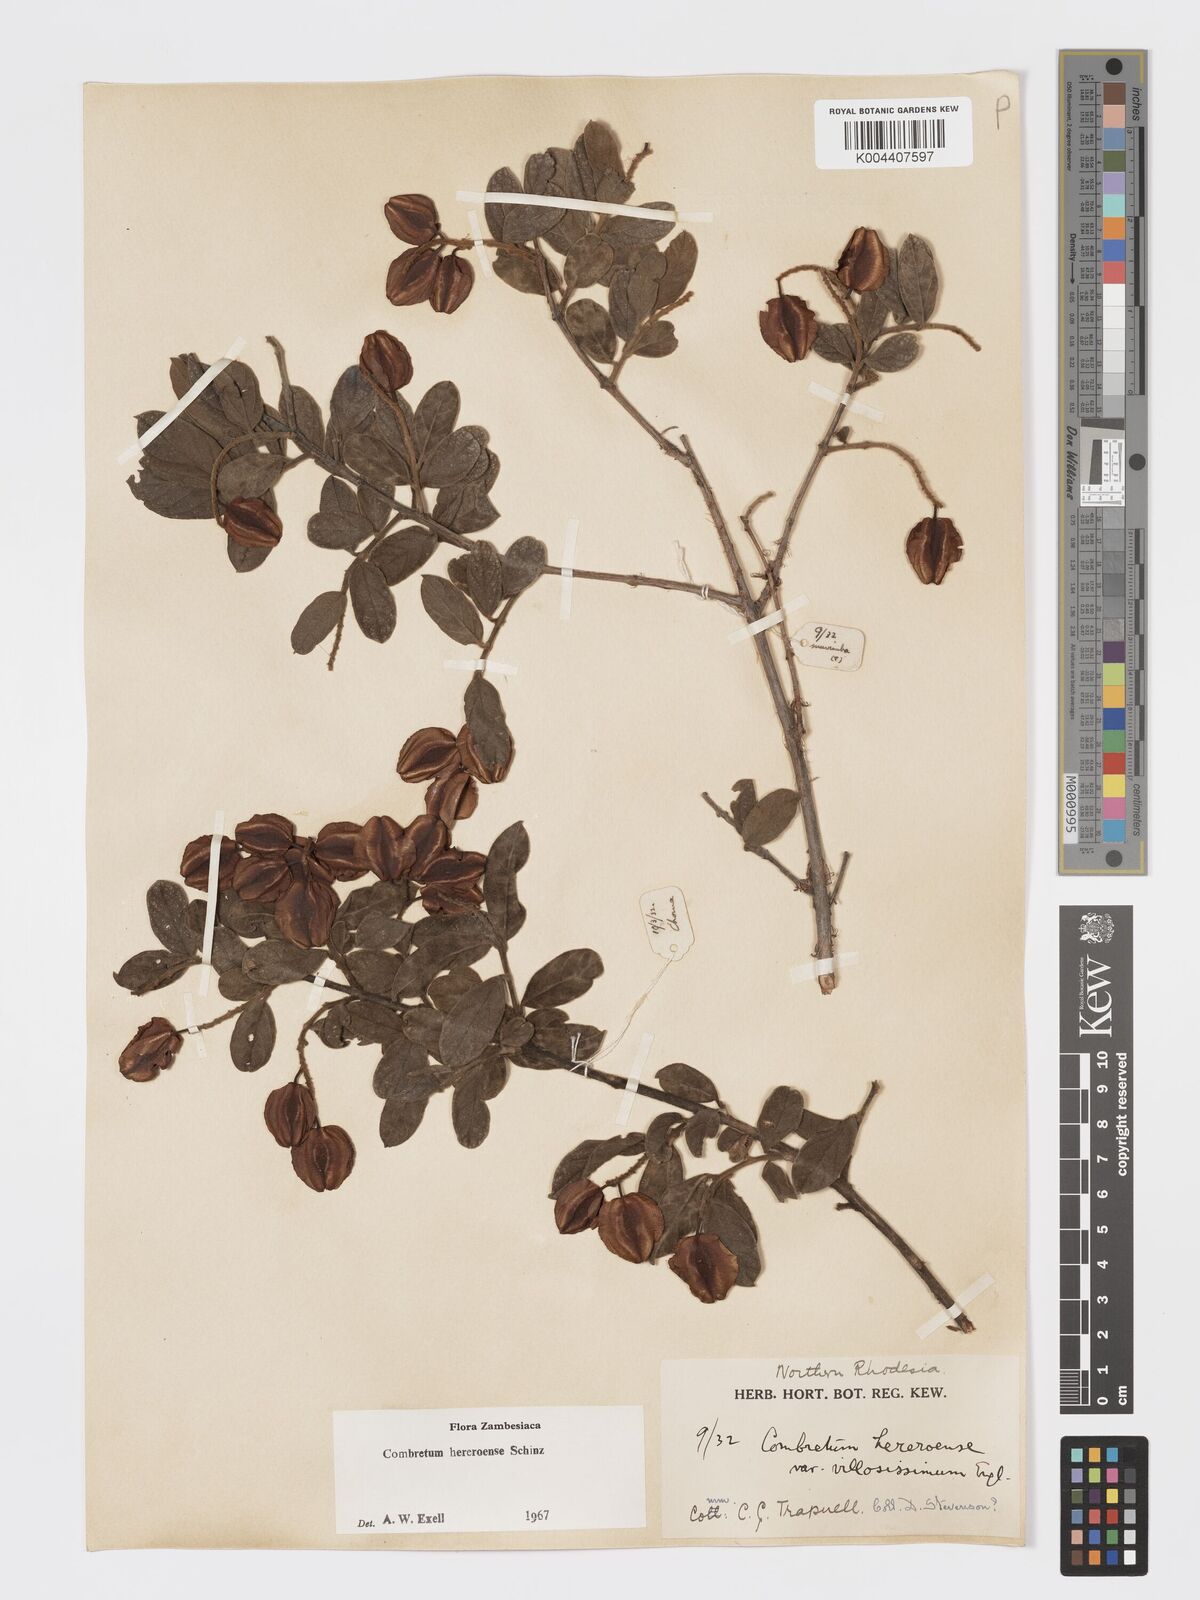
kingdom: Plantae
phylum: Tracheophyta
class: Magnoliopsida
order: Myrtales
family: Combretaceae
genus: Combretum
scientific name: Combretum hereroense
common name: Russet bushwillow
